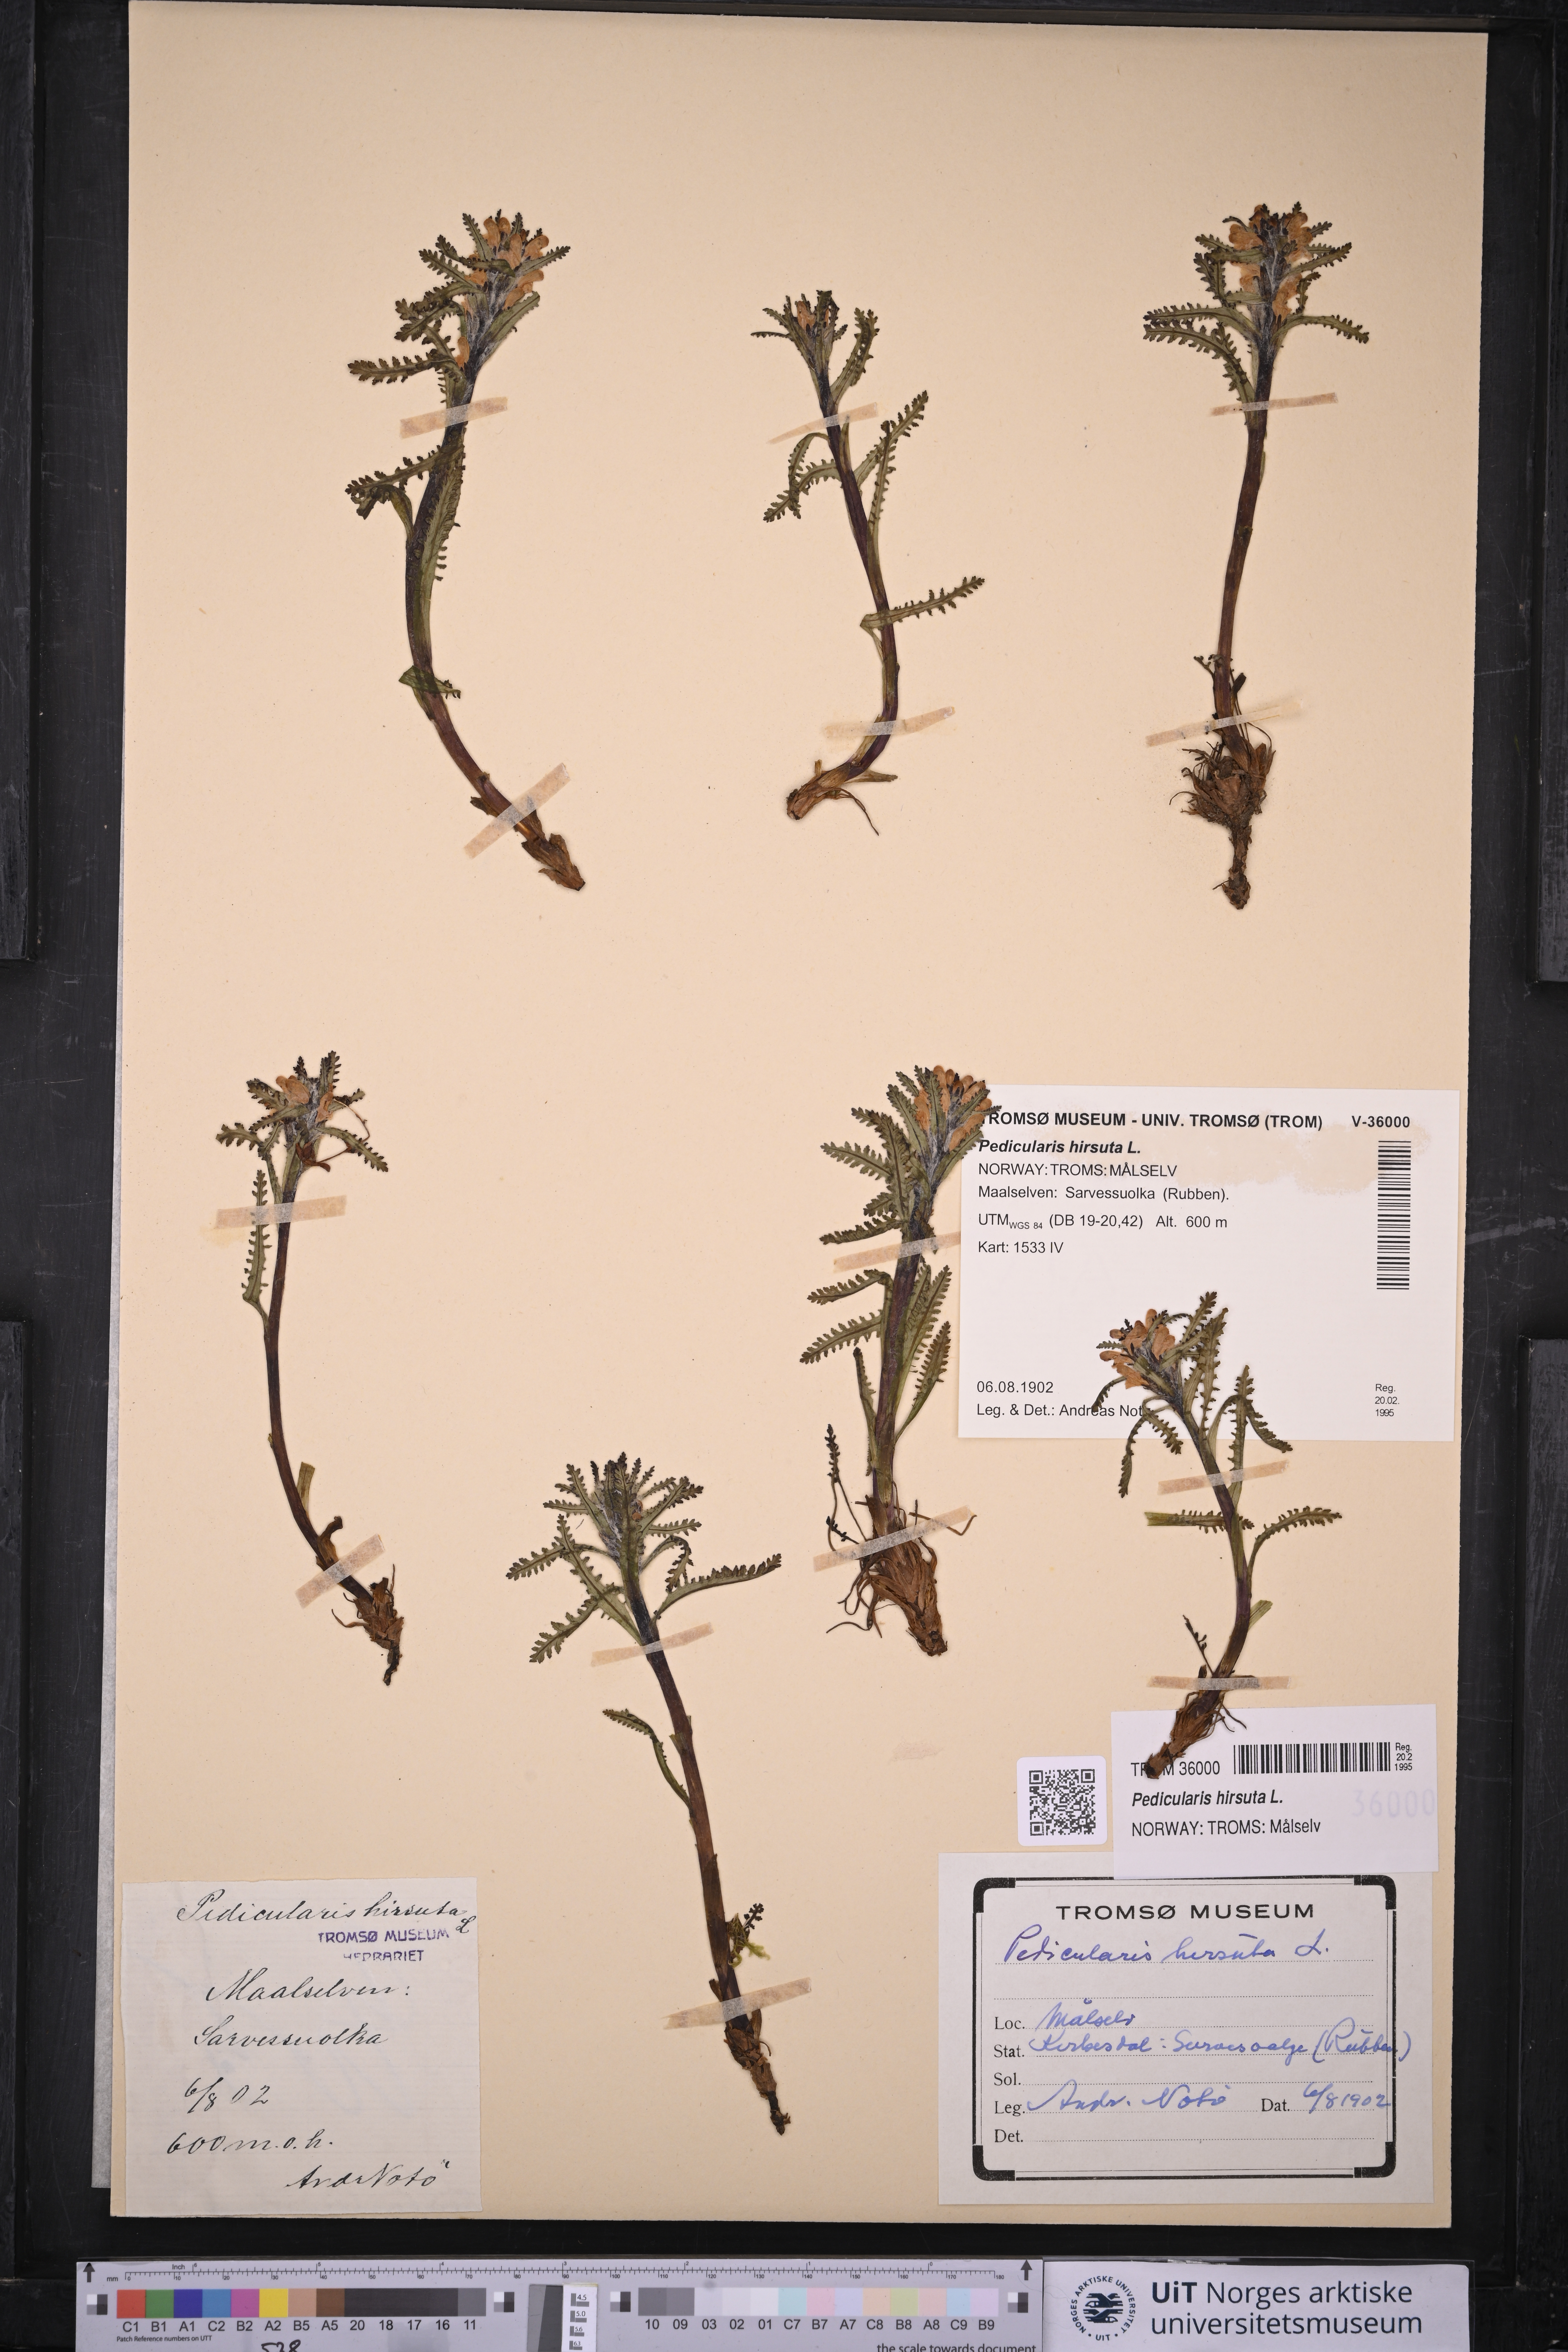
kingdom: Plantae
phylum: Tracheophyta
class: Magnoliopsida
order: Lamiales
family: Orobanchaceae
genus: Pedicularis
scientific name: Pedicularis hirsuta
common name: Hairy lousewort
